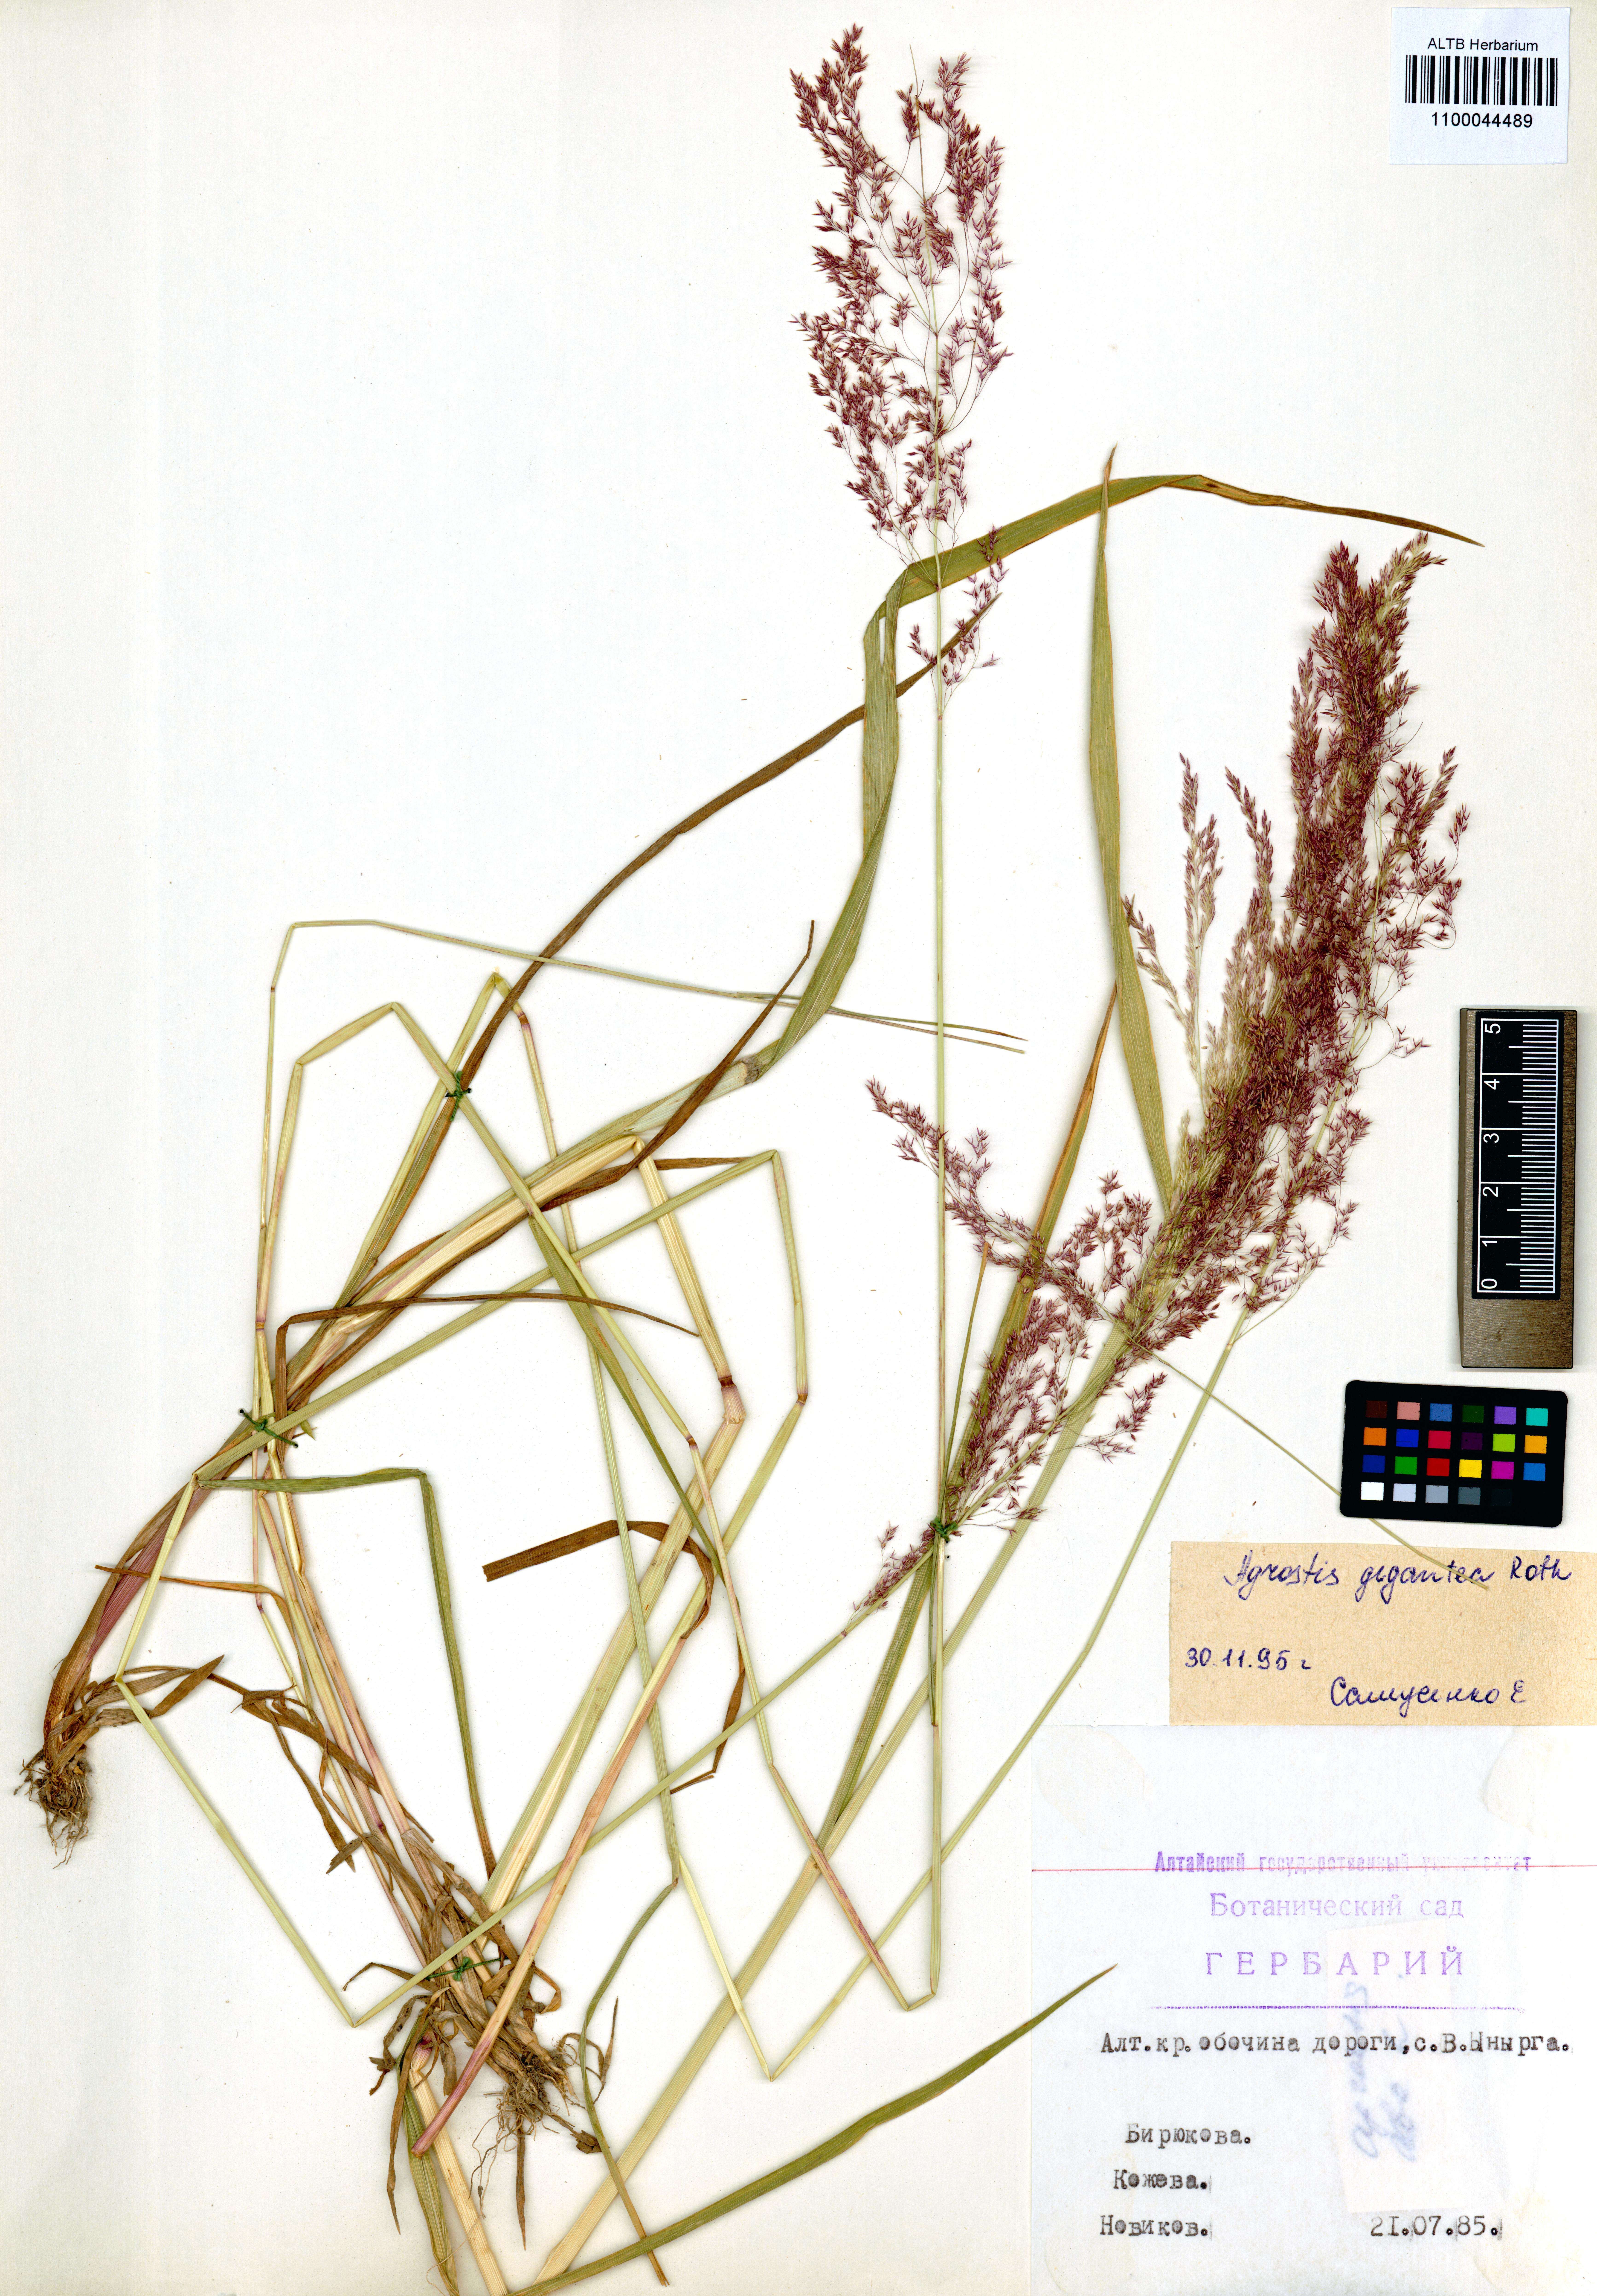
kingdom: Plantae
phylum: Tracheophyta
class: Liliopsida
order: Poales
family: Poaceae
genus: Agrostis
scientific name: Agrostis gigantea
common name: Black bent
